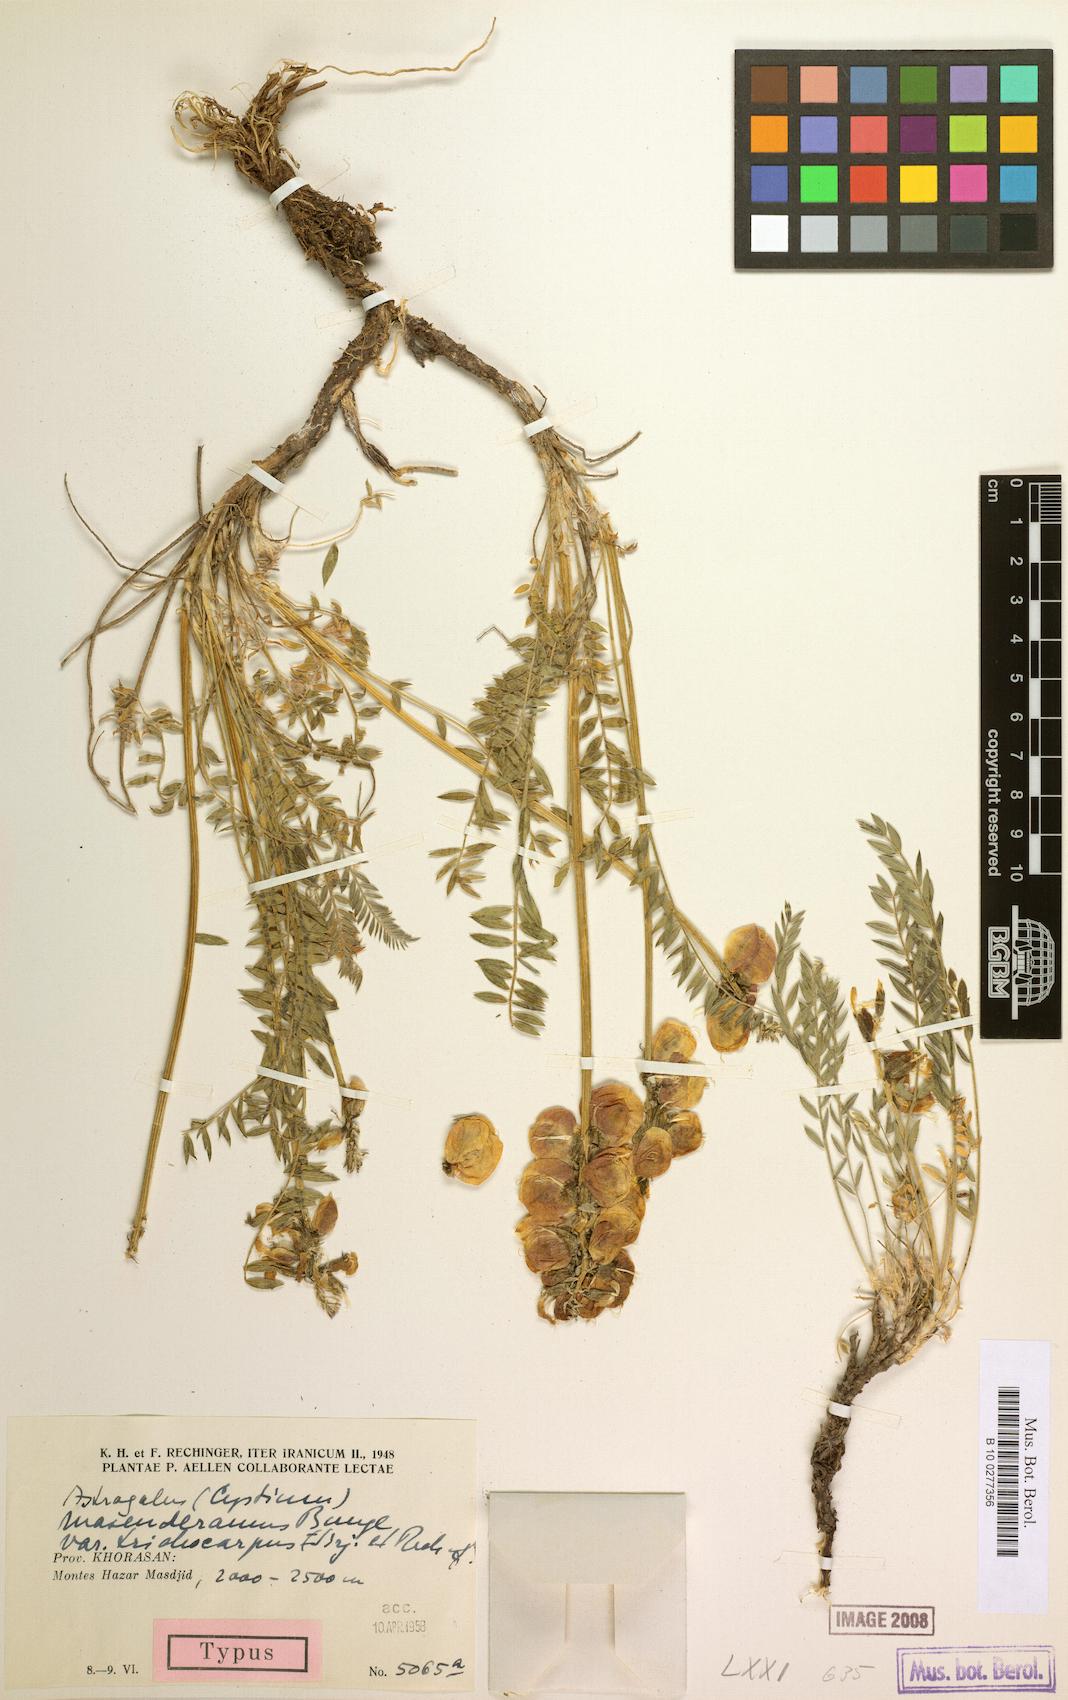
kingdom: Plantae
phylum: Tracheophyta
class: Magnoliopsida
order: Fabales
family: Fabaceae
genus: Astragalus
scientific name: Astragalus masanderanus
